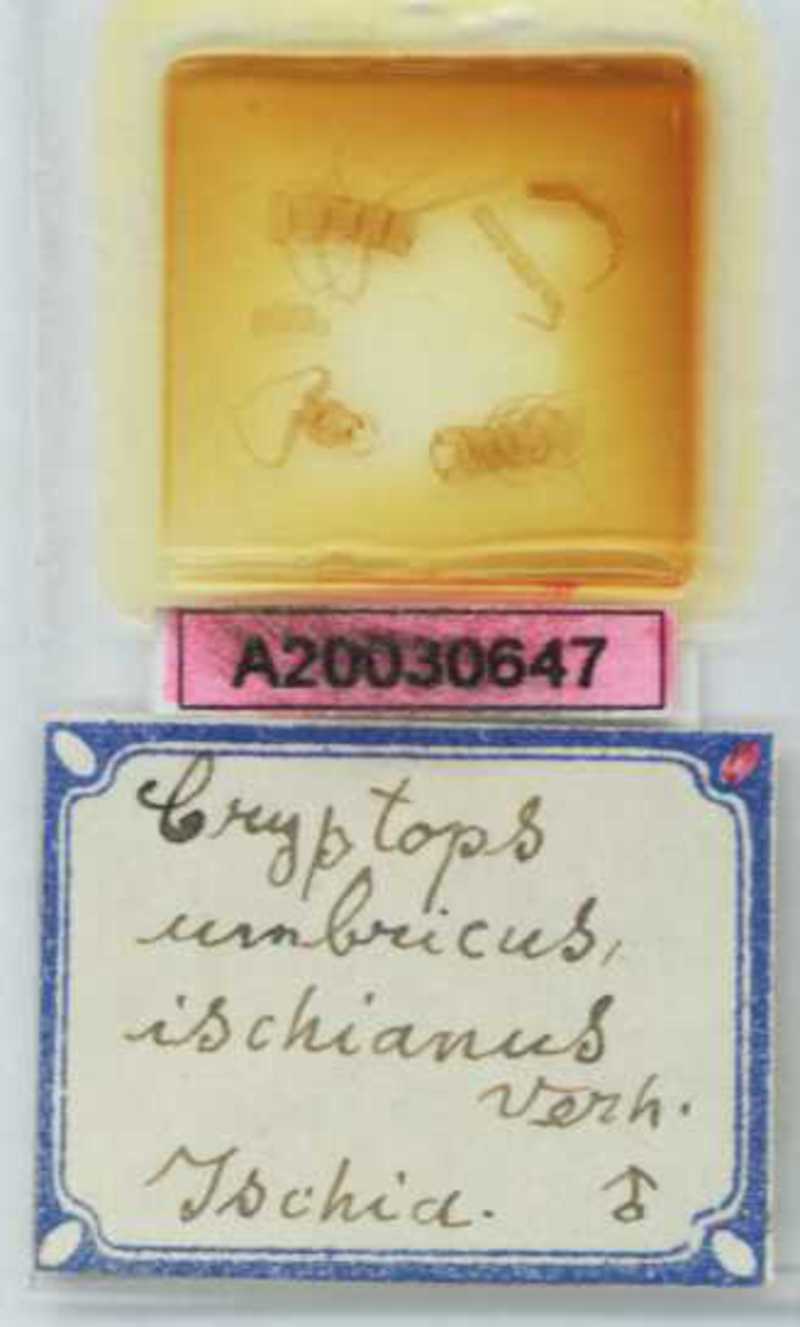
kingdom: Animalia
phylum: Arthropoda
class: Chilopoda
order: Scolopendromorpha
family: Cryptopidae
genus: Cryptops
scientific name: Cryptops umbricus
